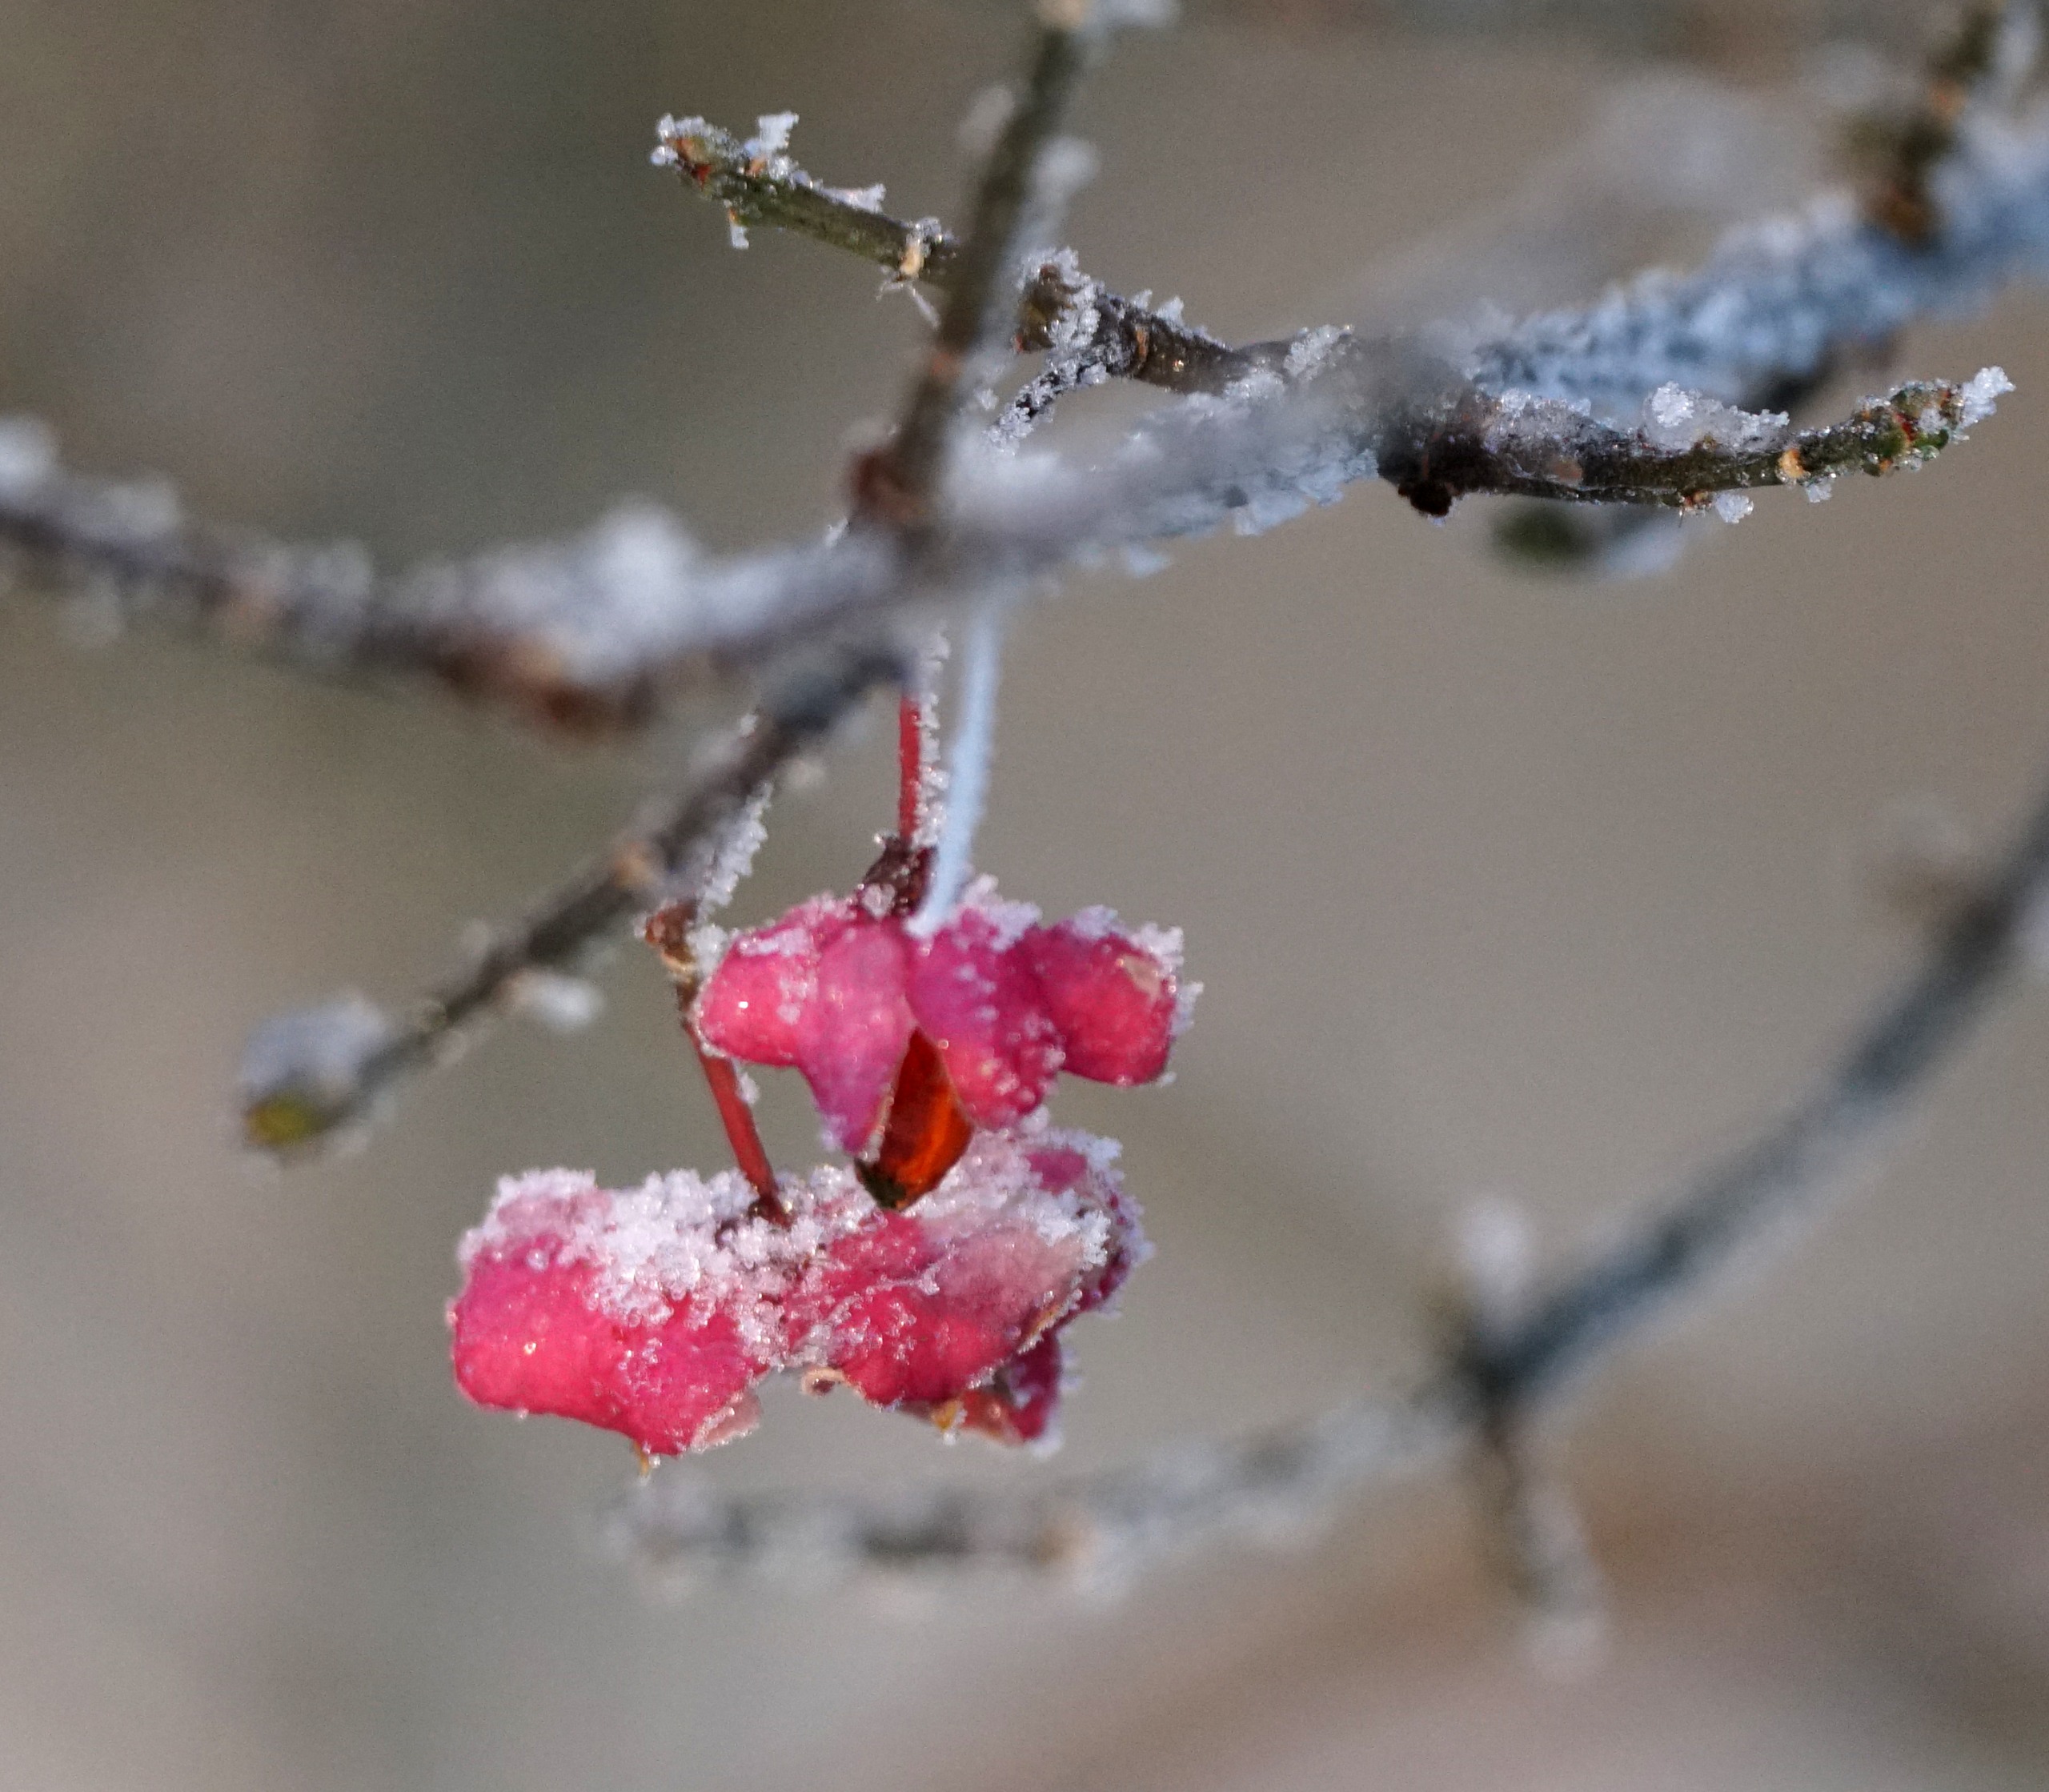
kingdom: Plantae
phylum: Tracheophyta
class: Magnoliopsida
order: Celastrales
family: Celastraceae
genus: Euonymus
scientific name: Euonymus europaeus
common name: Benved
